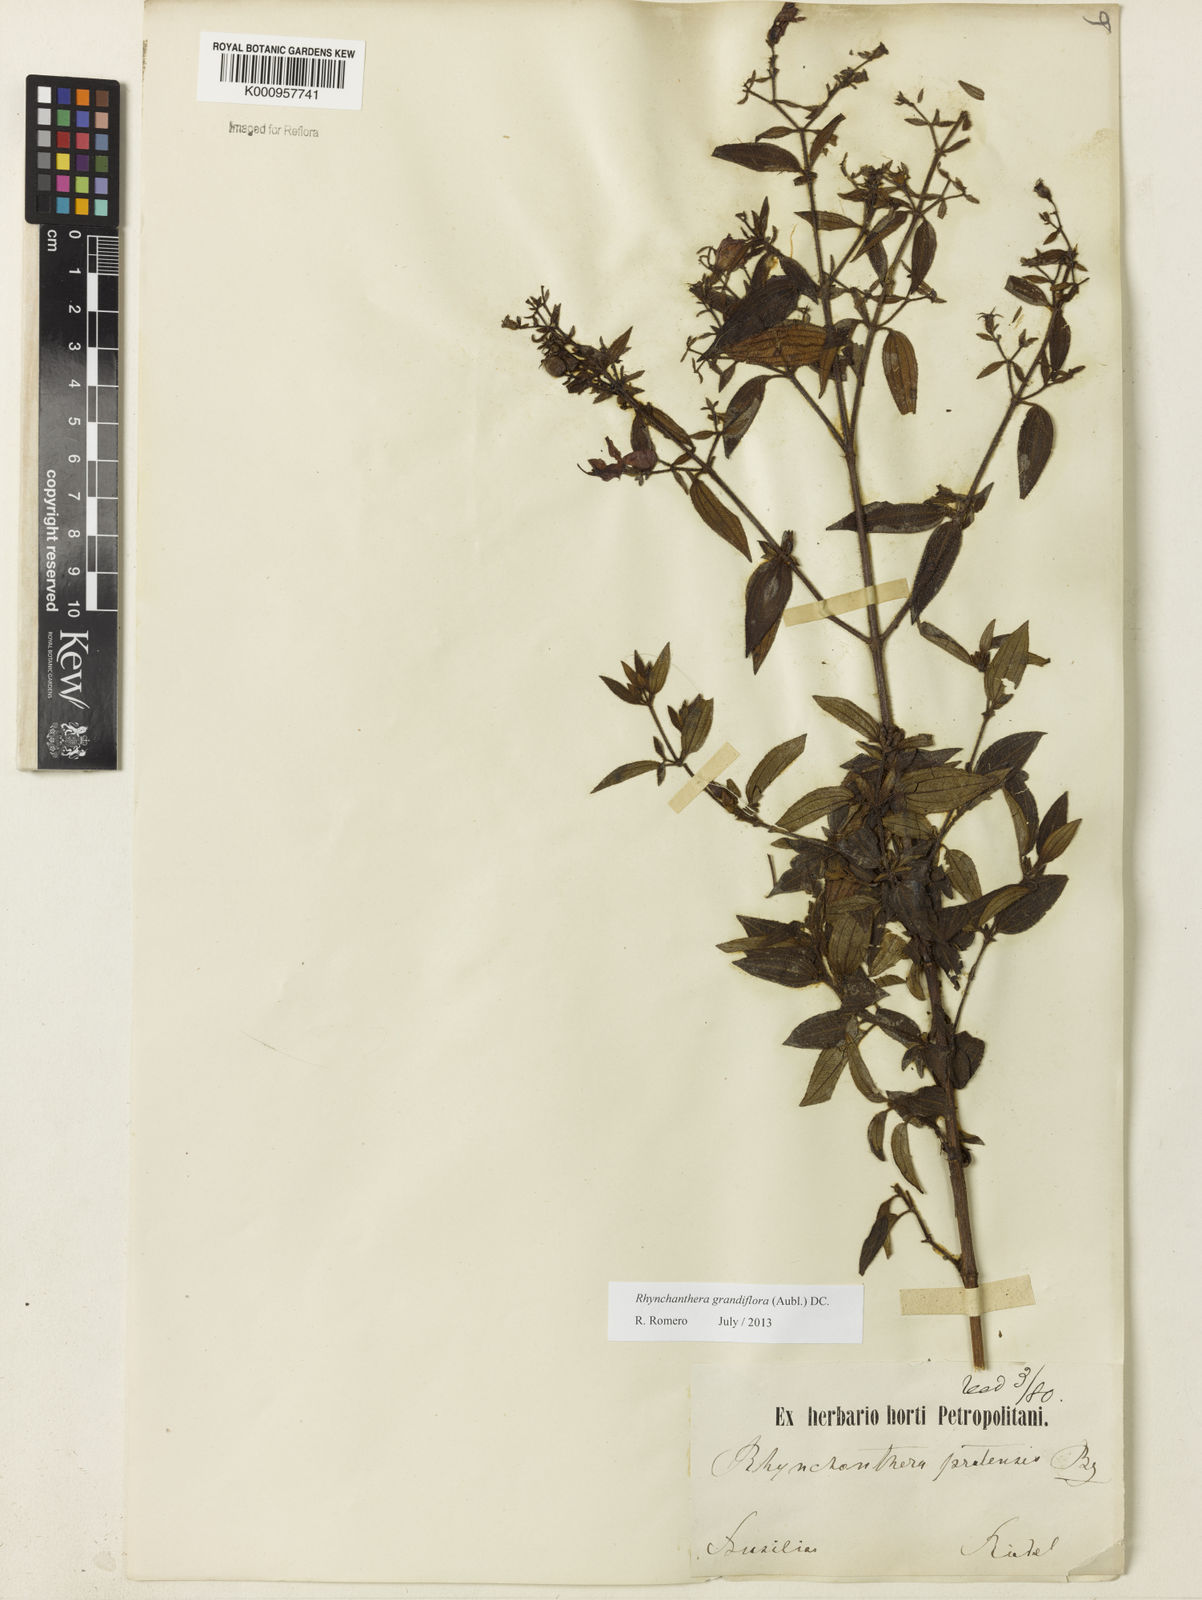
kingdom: Plantae
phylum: Tracheophyta
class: Magnoliopsida
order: Myrtales
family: Melastomataceae
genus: Rhynchanthera
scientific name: Rhynchanthera grandiflora
